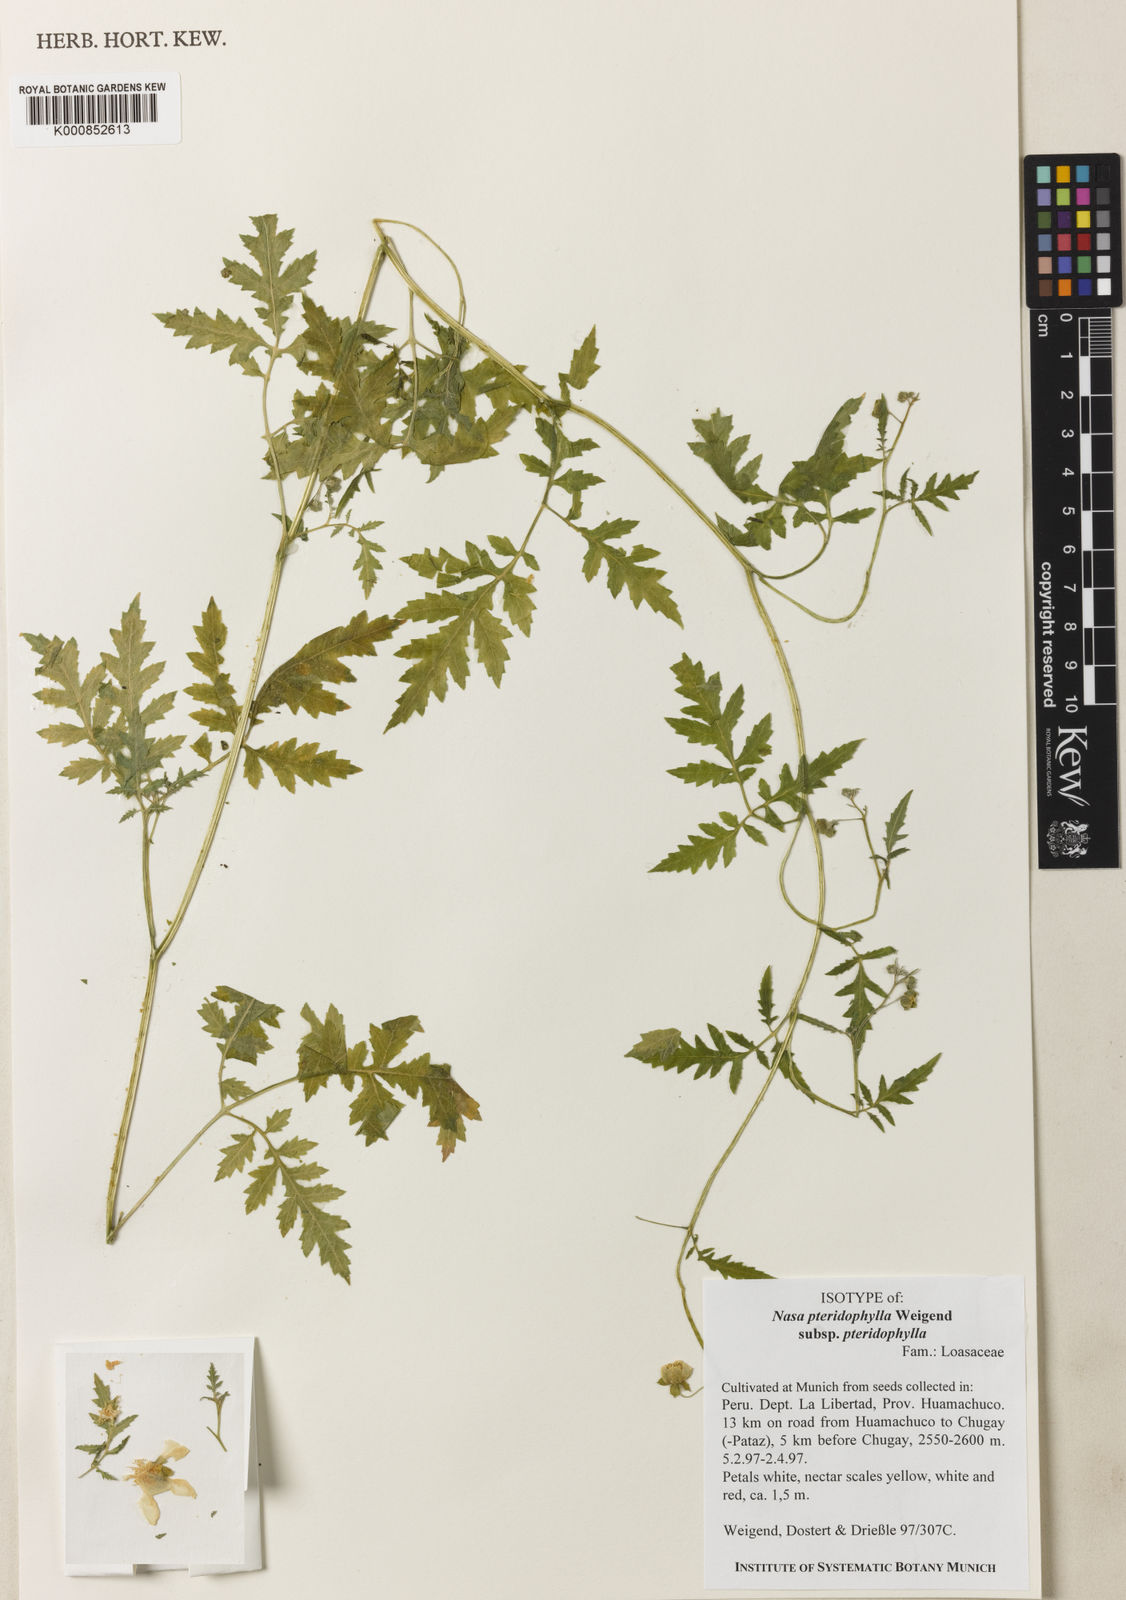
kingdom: Plantae
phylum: Tracheophyta
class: Magnoliopsida
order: Cornales
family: Loasaceae
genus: Nasa
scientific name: Nasa pteridophylla
